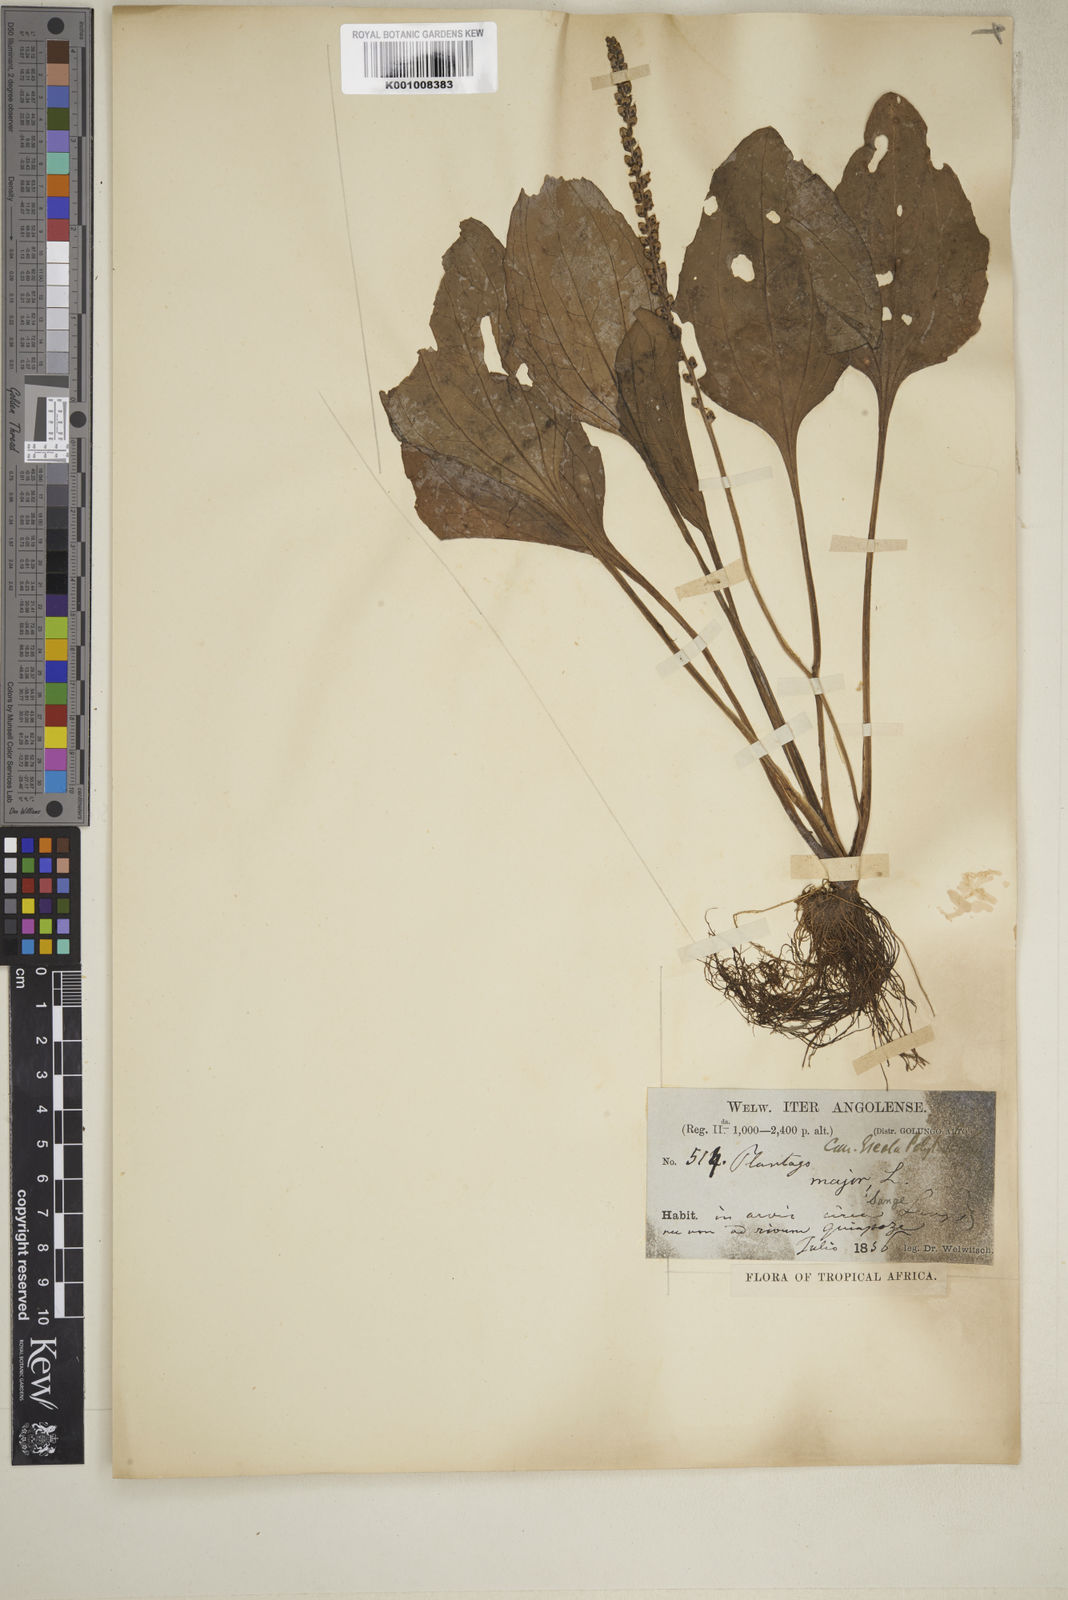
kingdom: Plantae
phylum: Tracheophyta
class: Magnoliopsida
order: Lamiales
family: Plantaginaceae
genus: Plantago
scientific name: Plantago major
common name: Common plantain
